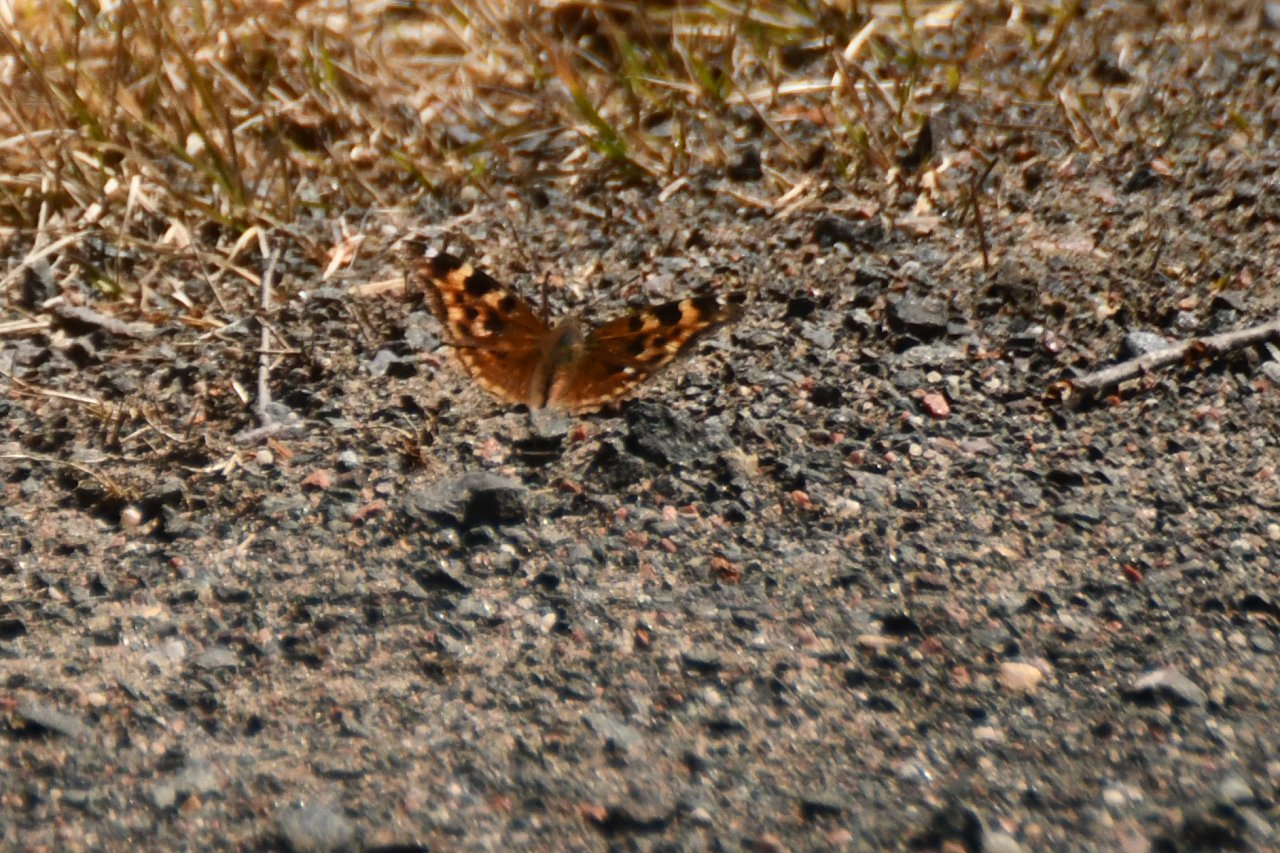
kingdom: Animalia
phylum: Arthropoda
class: Insecta
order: Lepidoptera
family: Nymphalidae
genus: Polygonia
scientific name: Polygonia vaualbum
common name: Compton Tortoiseshell
